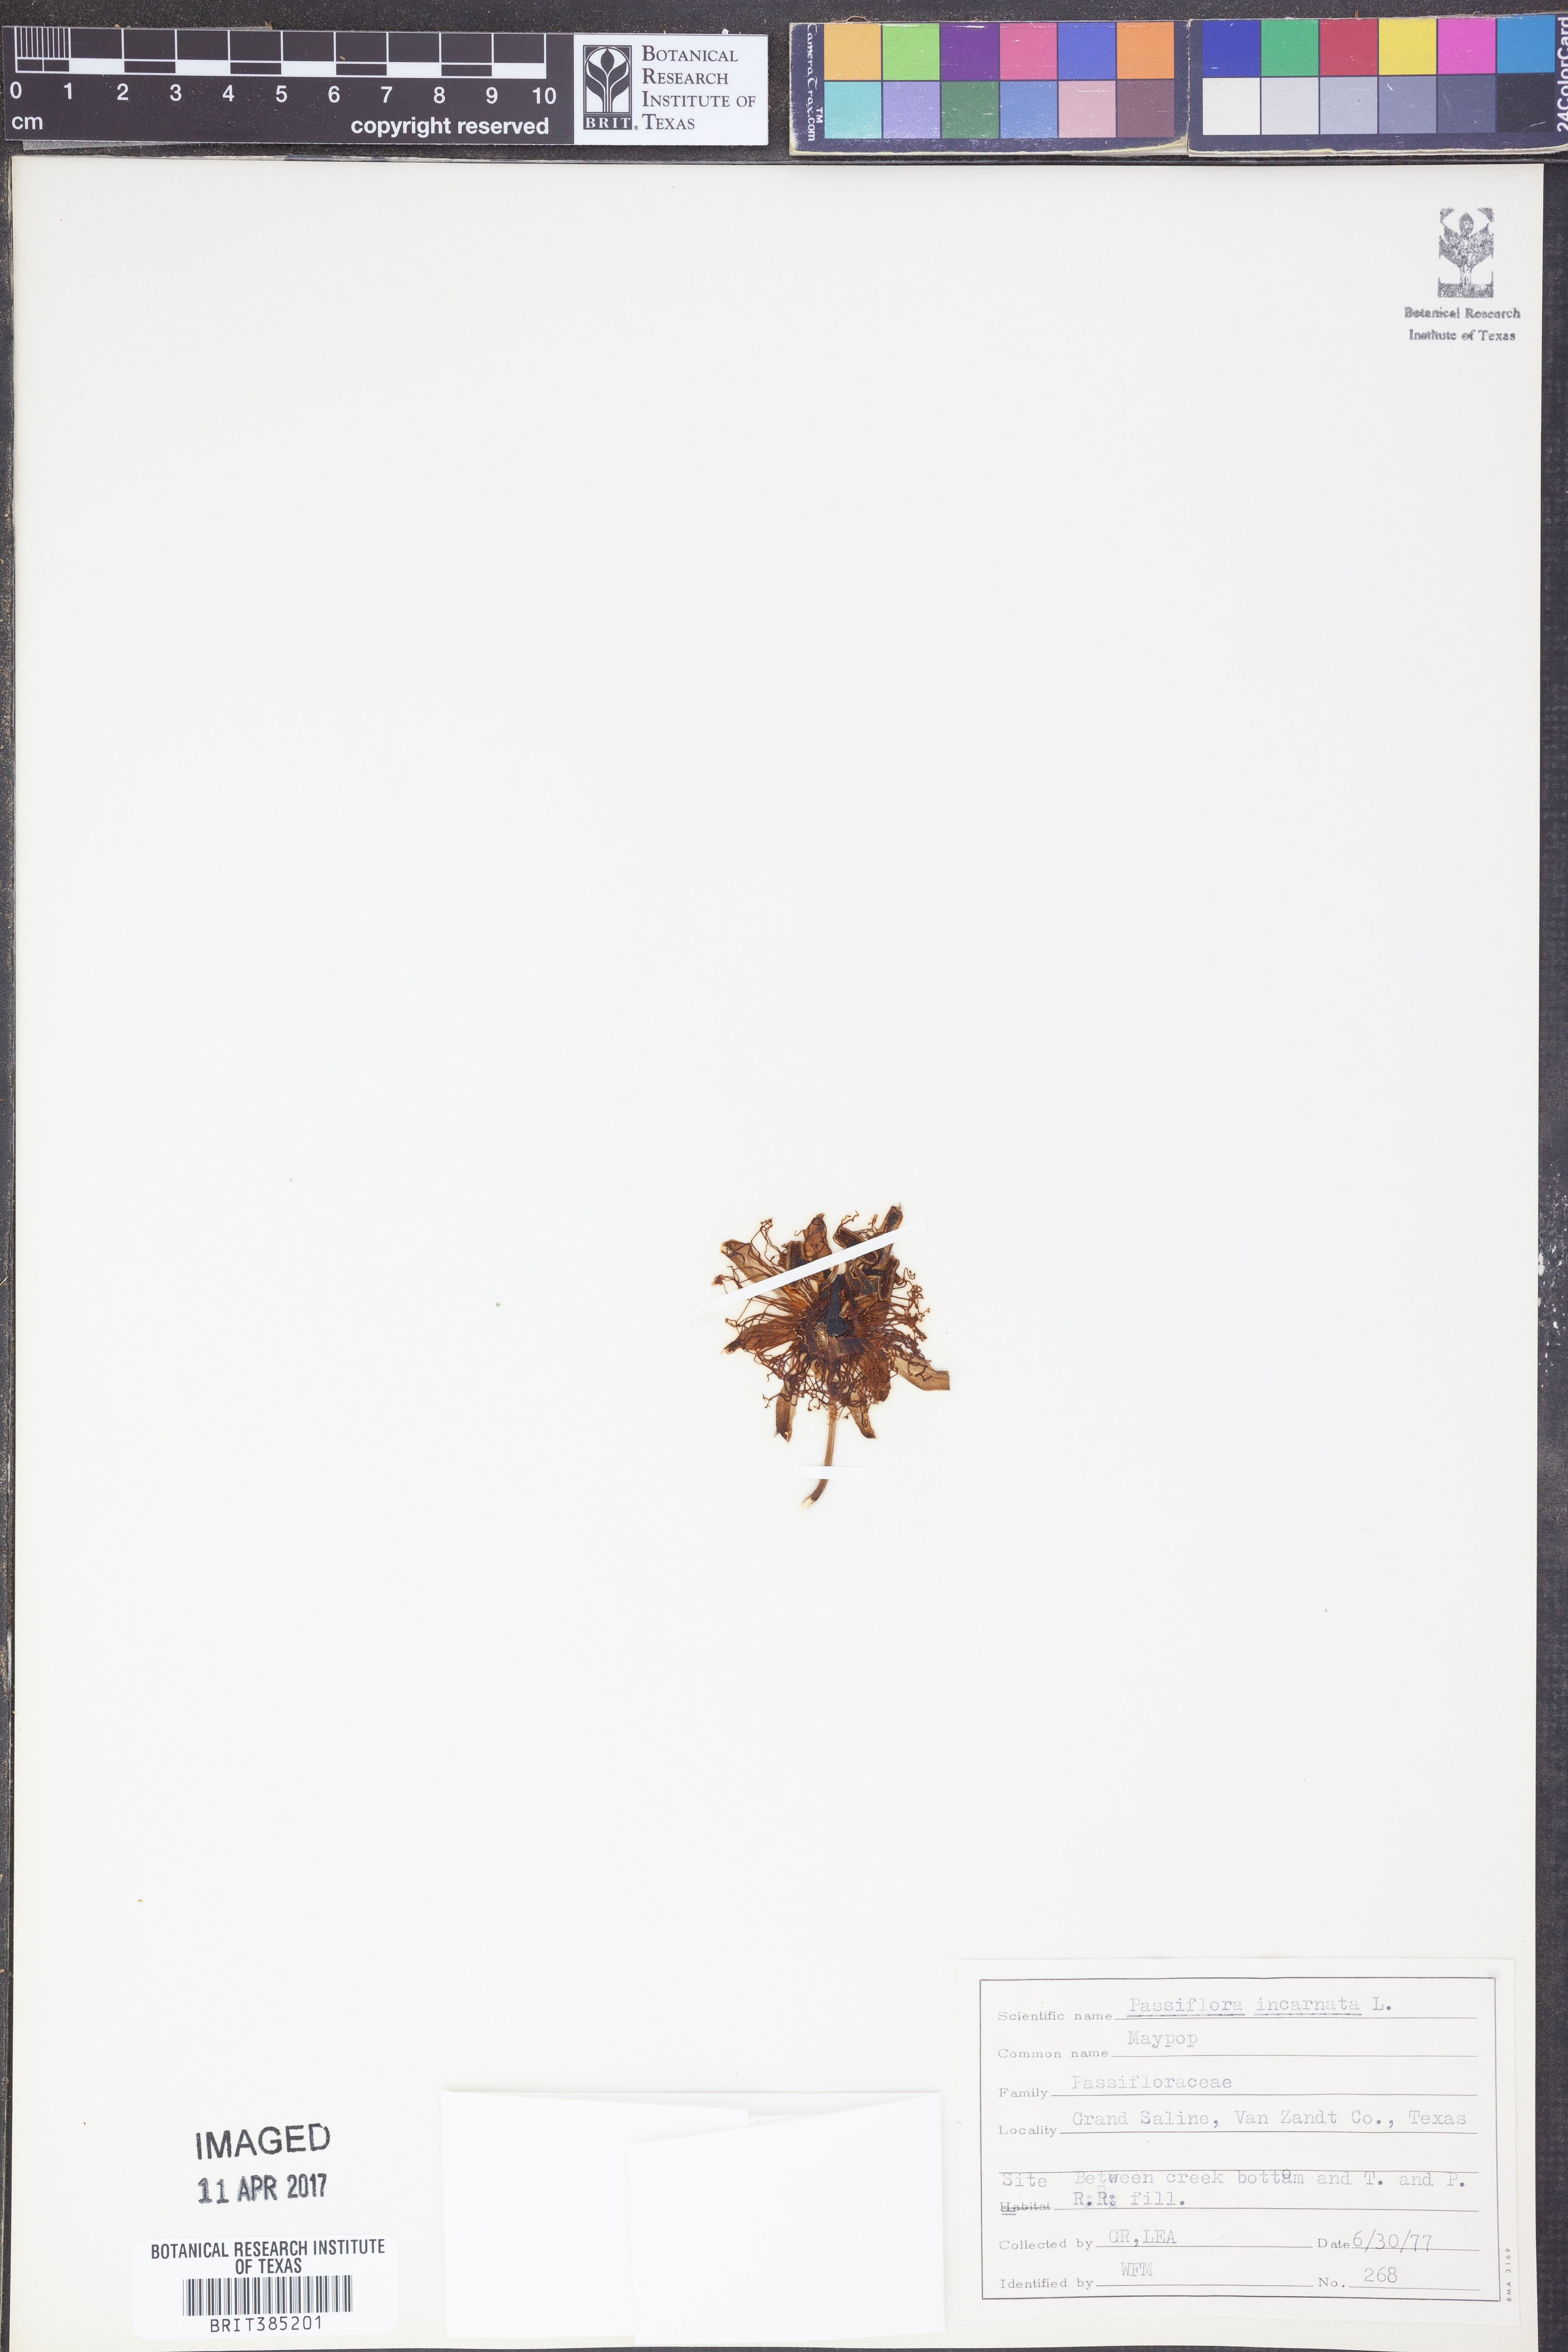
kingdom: Plantae
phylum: Tracheophyta
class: Magnoliopsida
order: Malpighiales
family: Passifloraceae
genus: Passiflora
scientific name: Passiflora incarnata
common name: Apricot-vine
